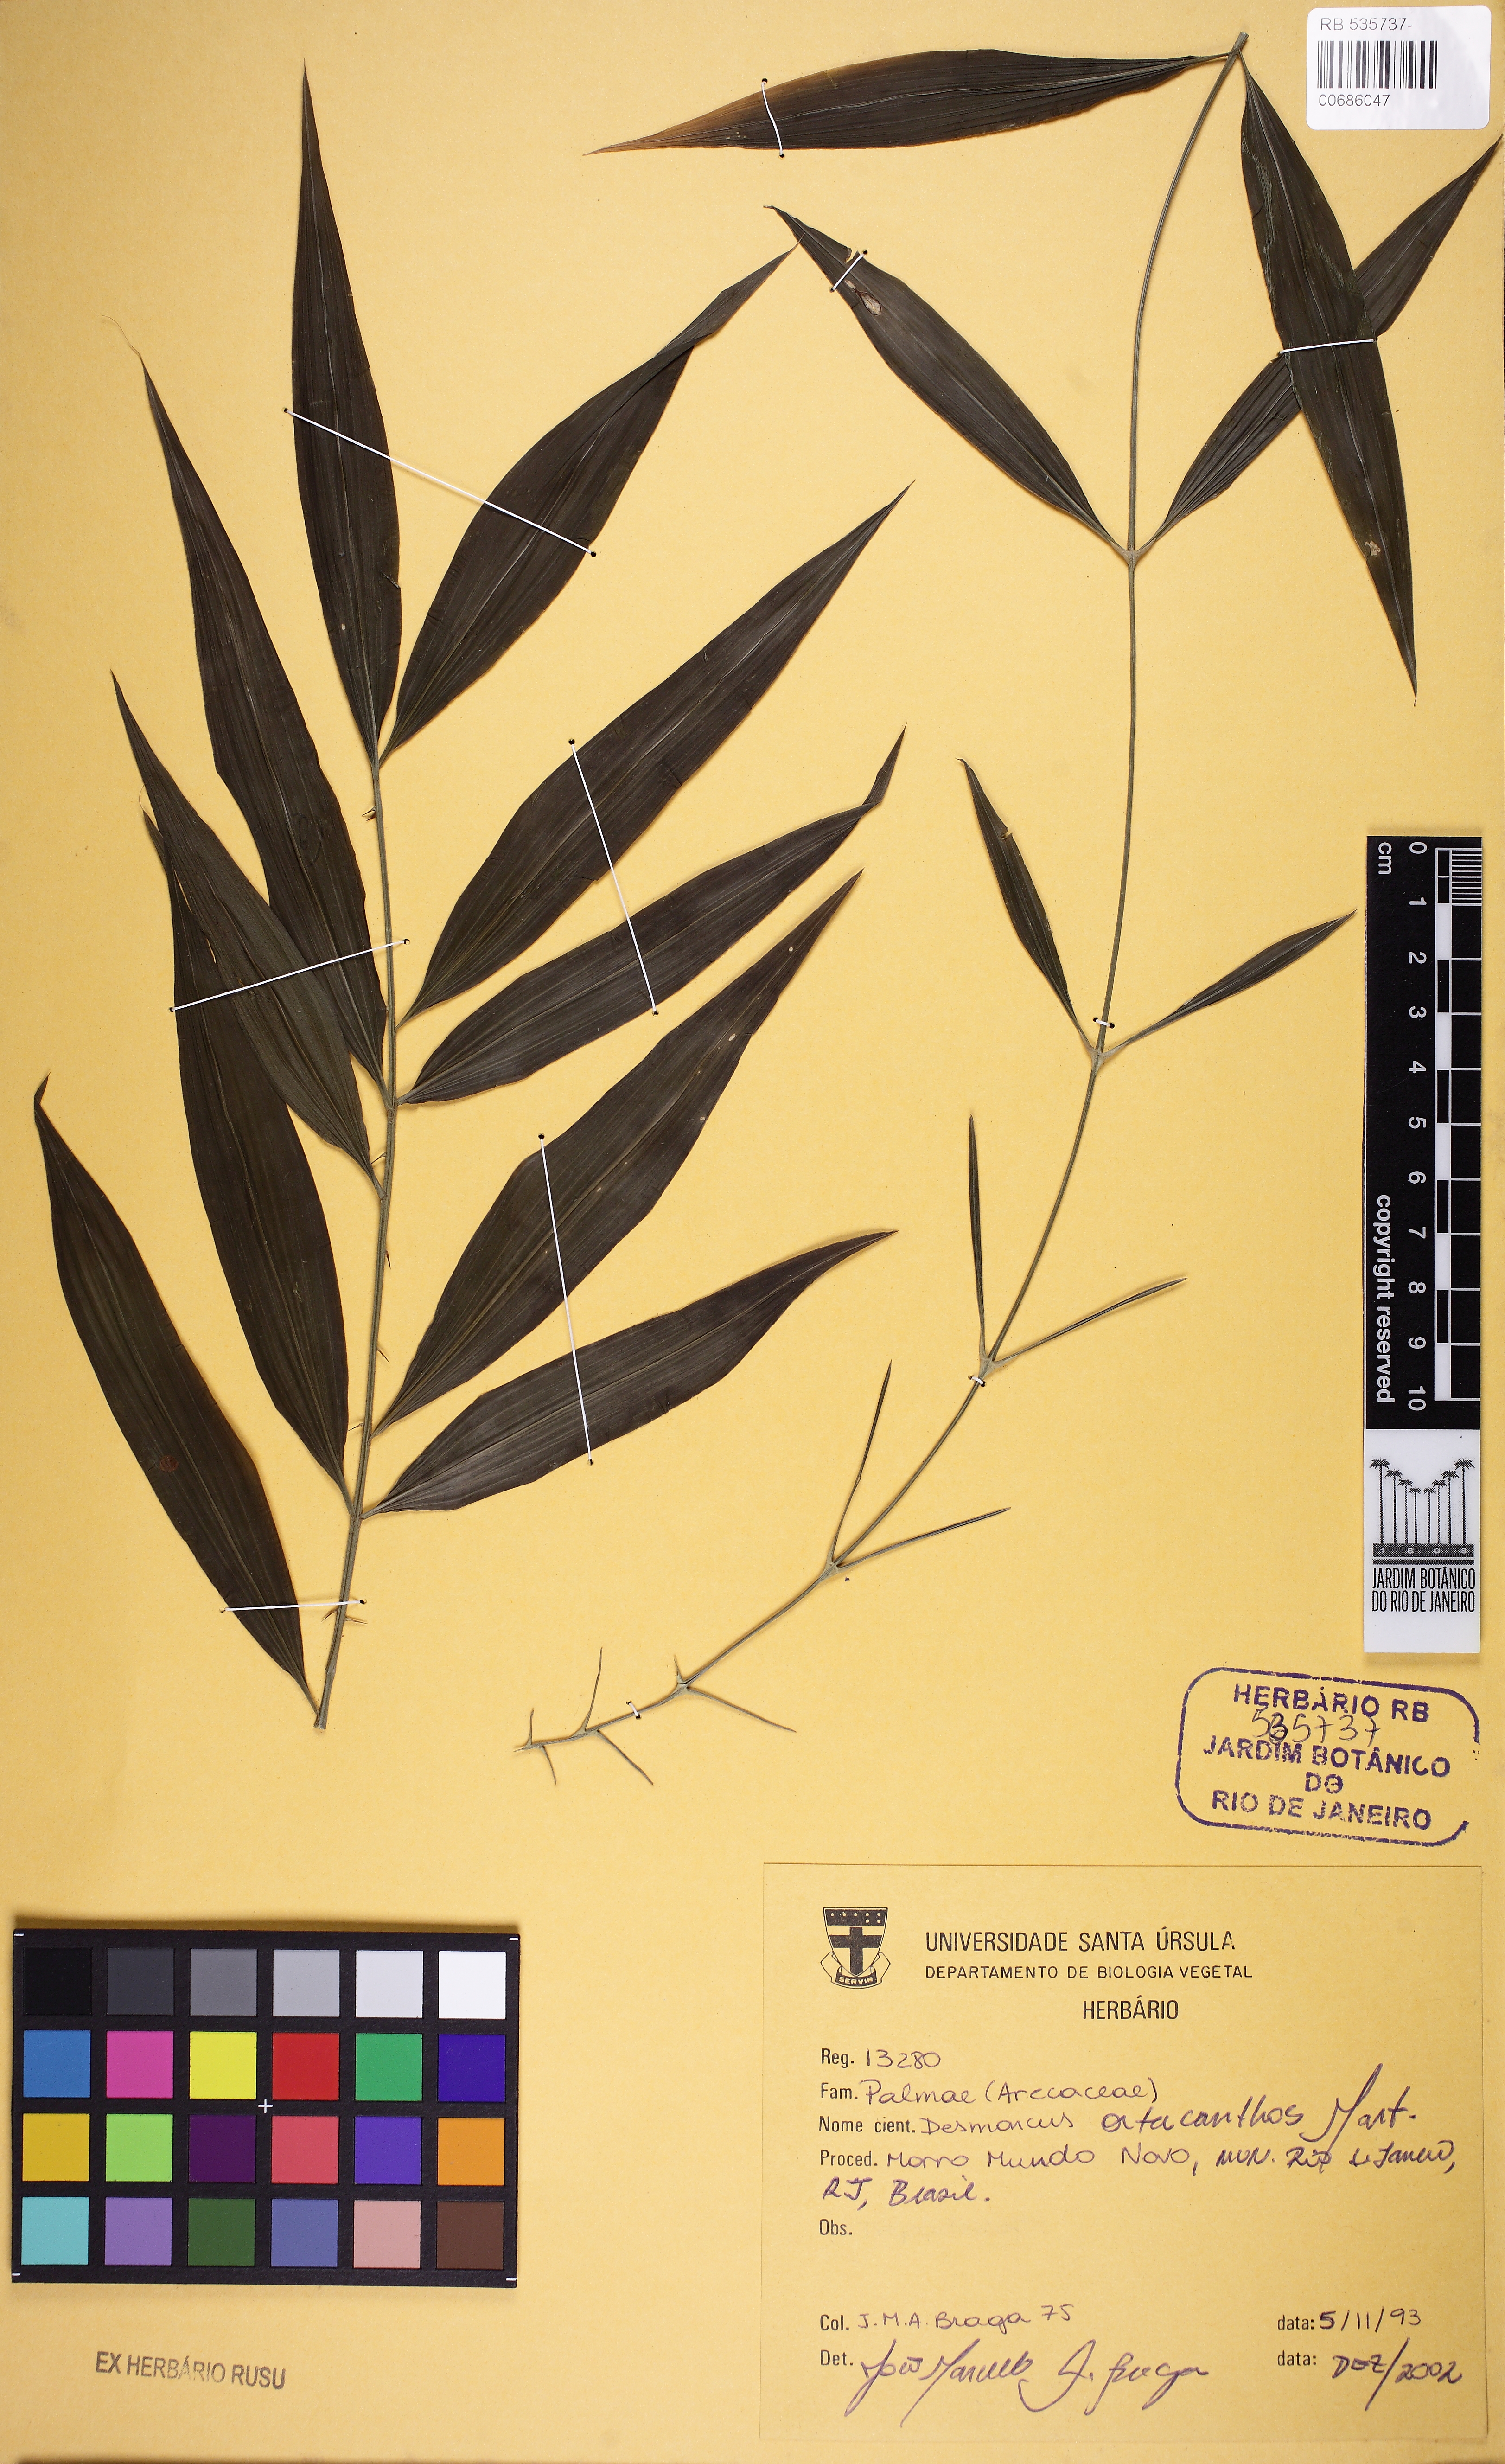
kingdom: Plantae
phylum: Tracheophyta
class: Liliopsida
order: Arecales
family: Arecaceae
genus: Desmoncus
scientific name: Desmoncus orthacanthos
